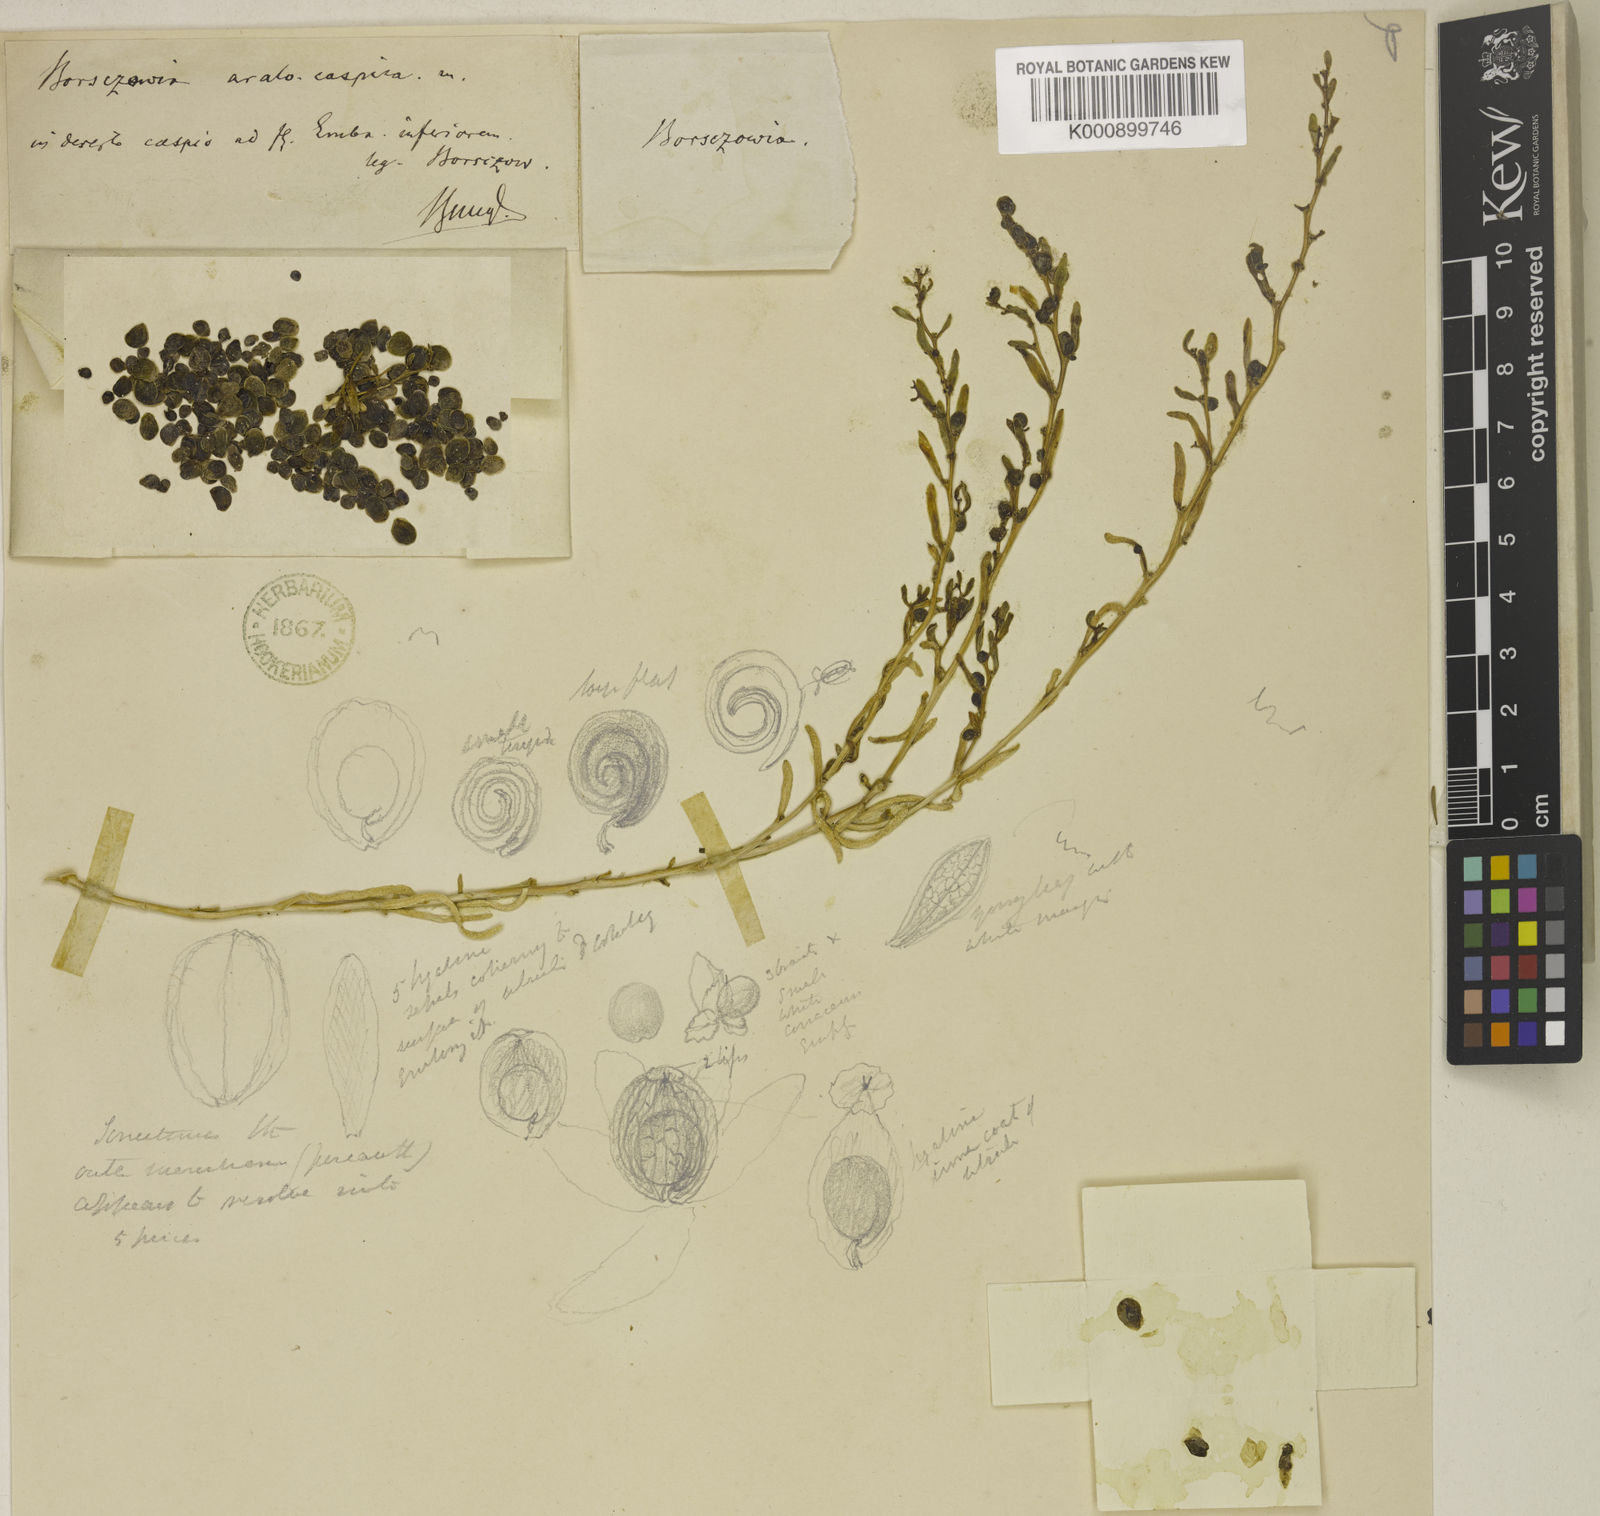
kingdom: Plantae
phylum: Tracheophyta
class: Magnoliopsida
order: Caryophyllales
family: Amaranthaceae
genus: Suaeda
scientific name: Suaeda aralocaspica
